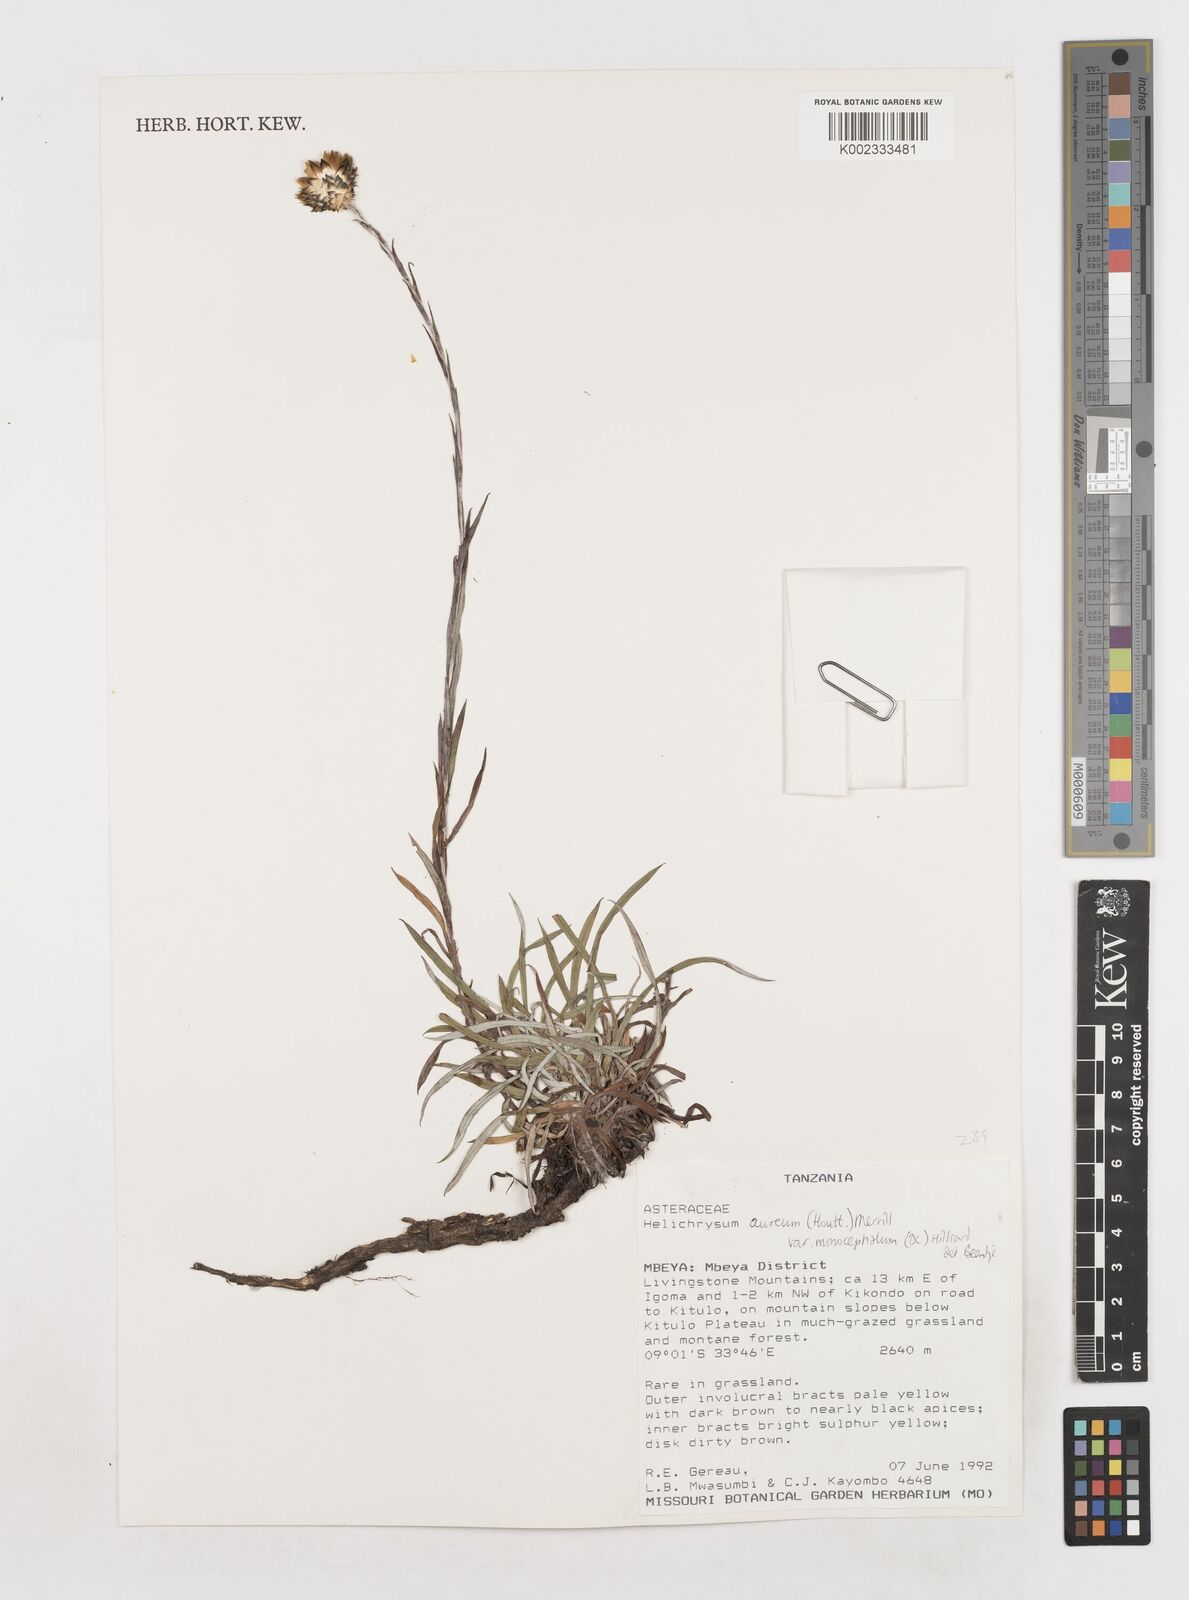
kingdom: Plantae
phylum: Tracheophyta
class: Magnoliopsida
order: Asterales
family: Asteraceae
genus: Helichrysum
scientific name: Helichrysum aureum
